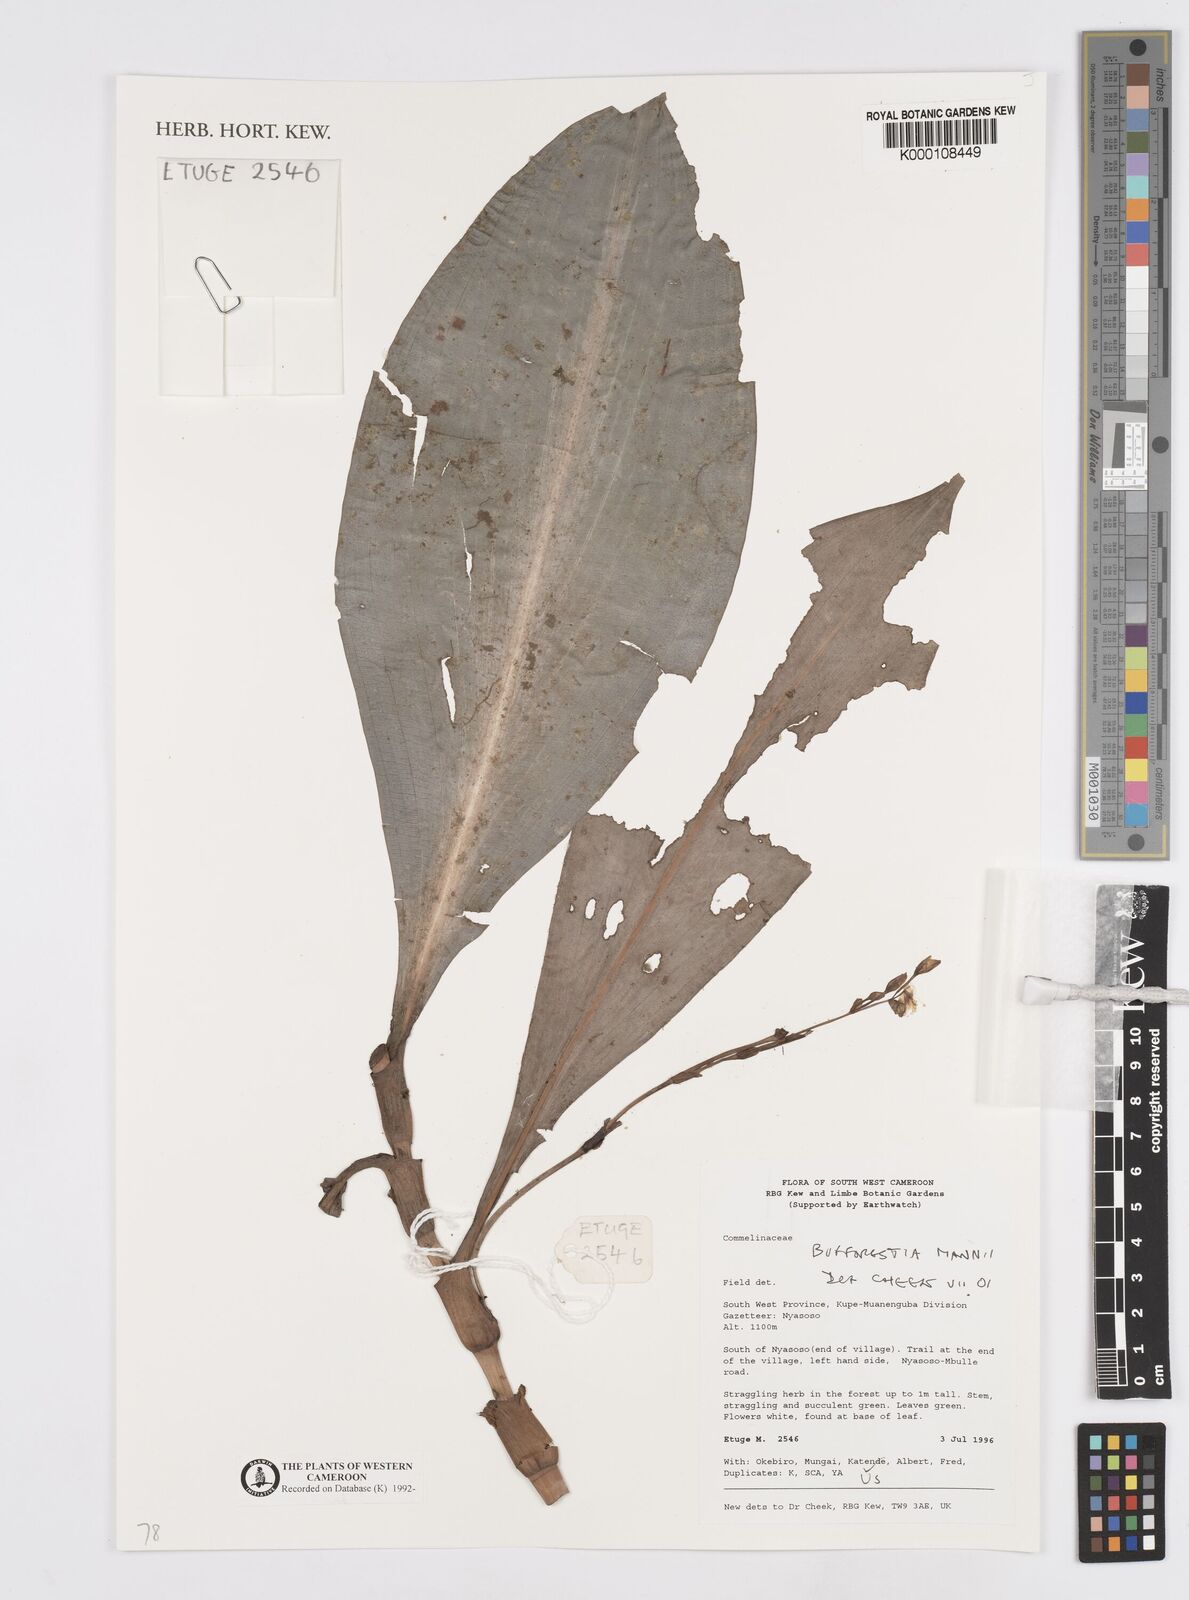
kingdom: Plantae
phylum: Tracheophyta
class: Liliopsida
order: Commelinales
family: Commelinaceae
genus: Buforrestia
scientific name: Buforrestia mannii
